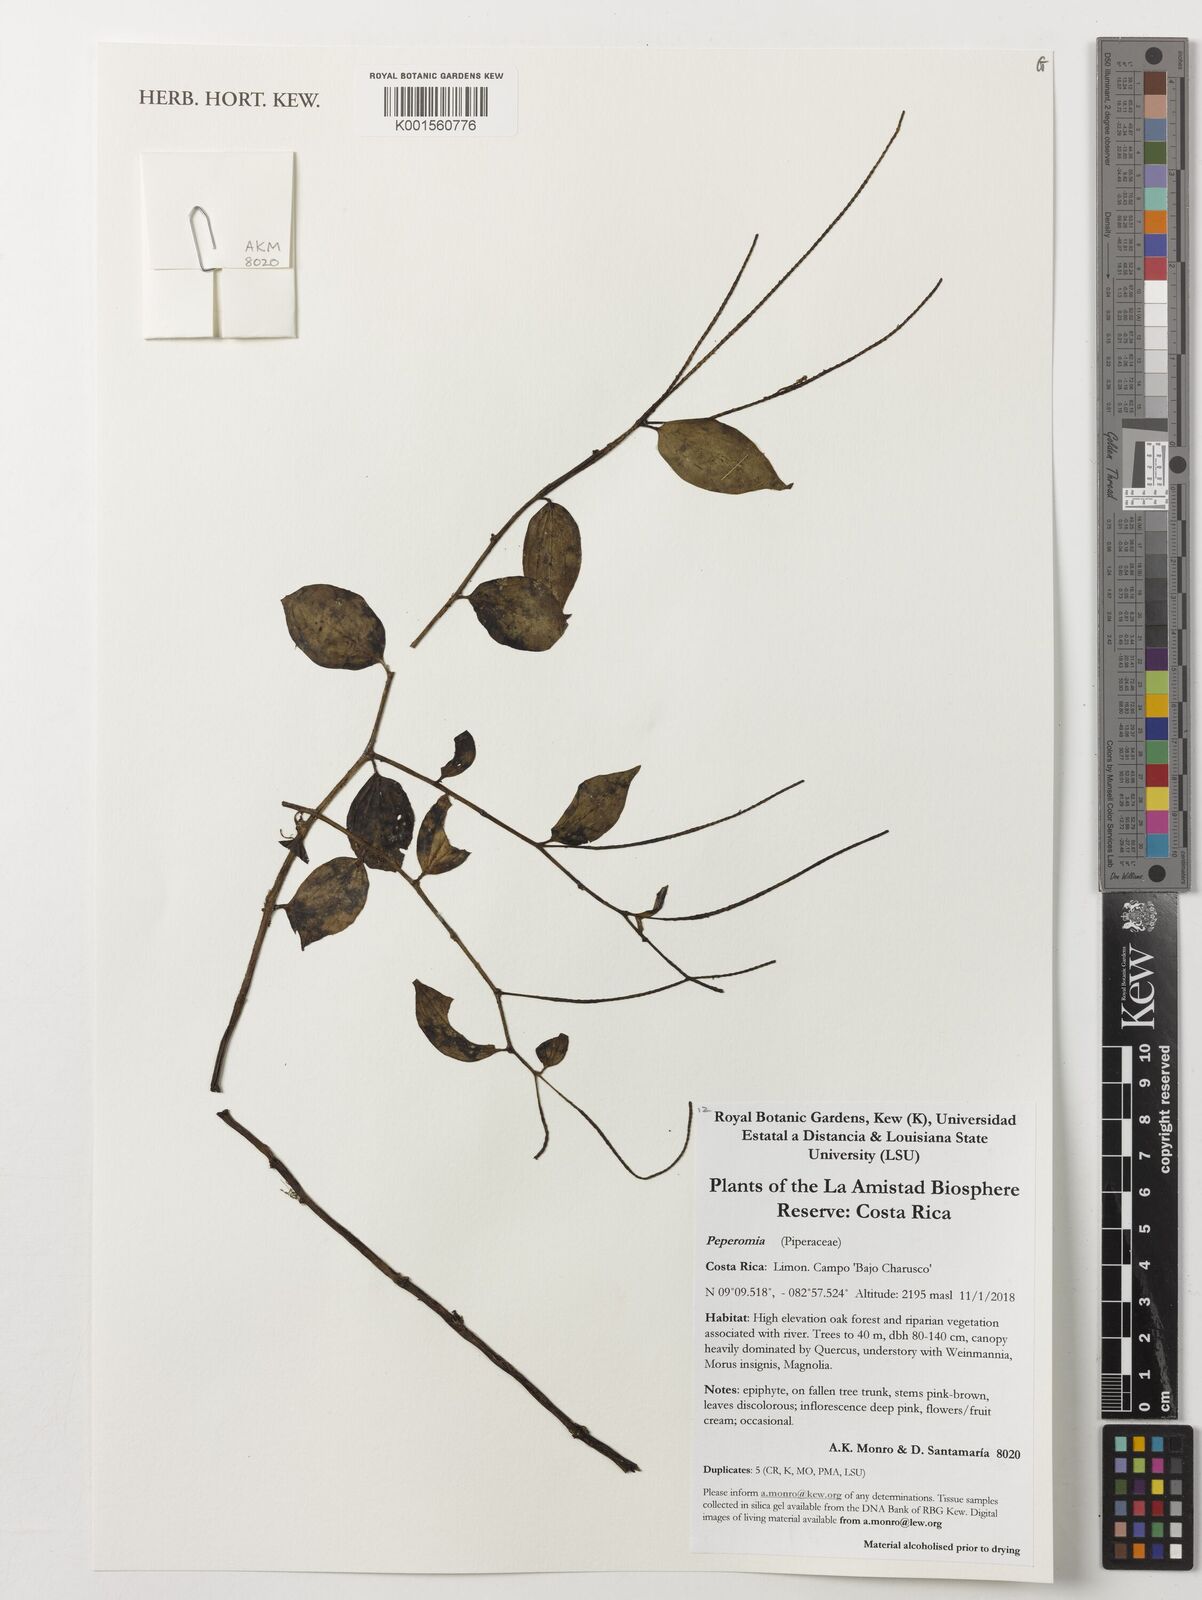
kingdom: Plantae
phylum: Tracheophyta
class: Magnoliopsida
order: Piperales
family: Piperaceae
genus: Peperomia
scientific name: Peperomia
